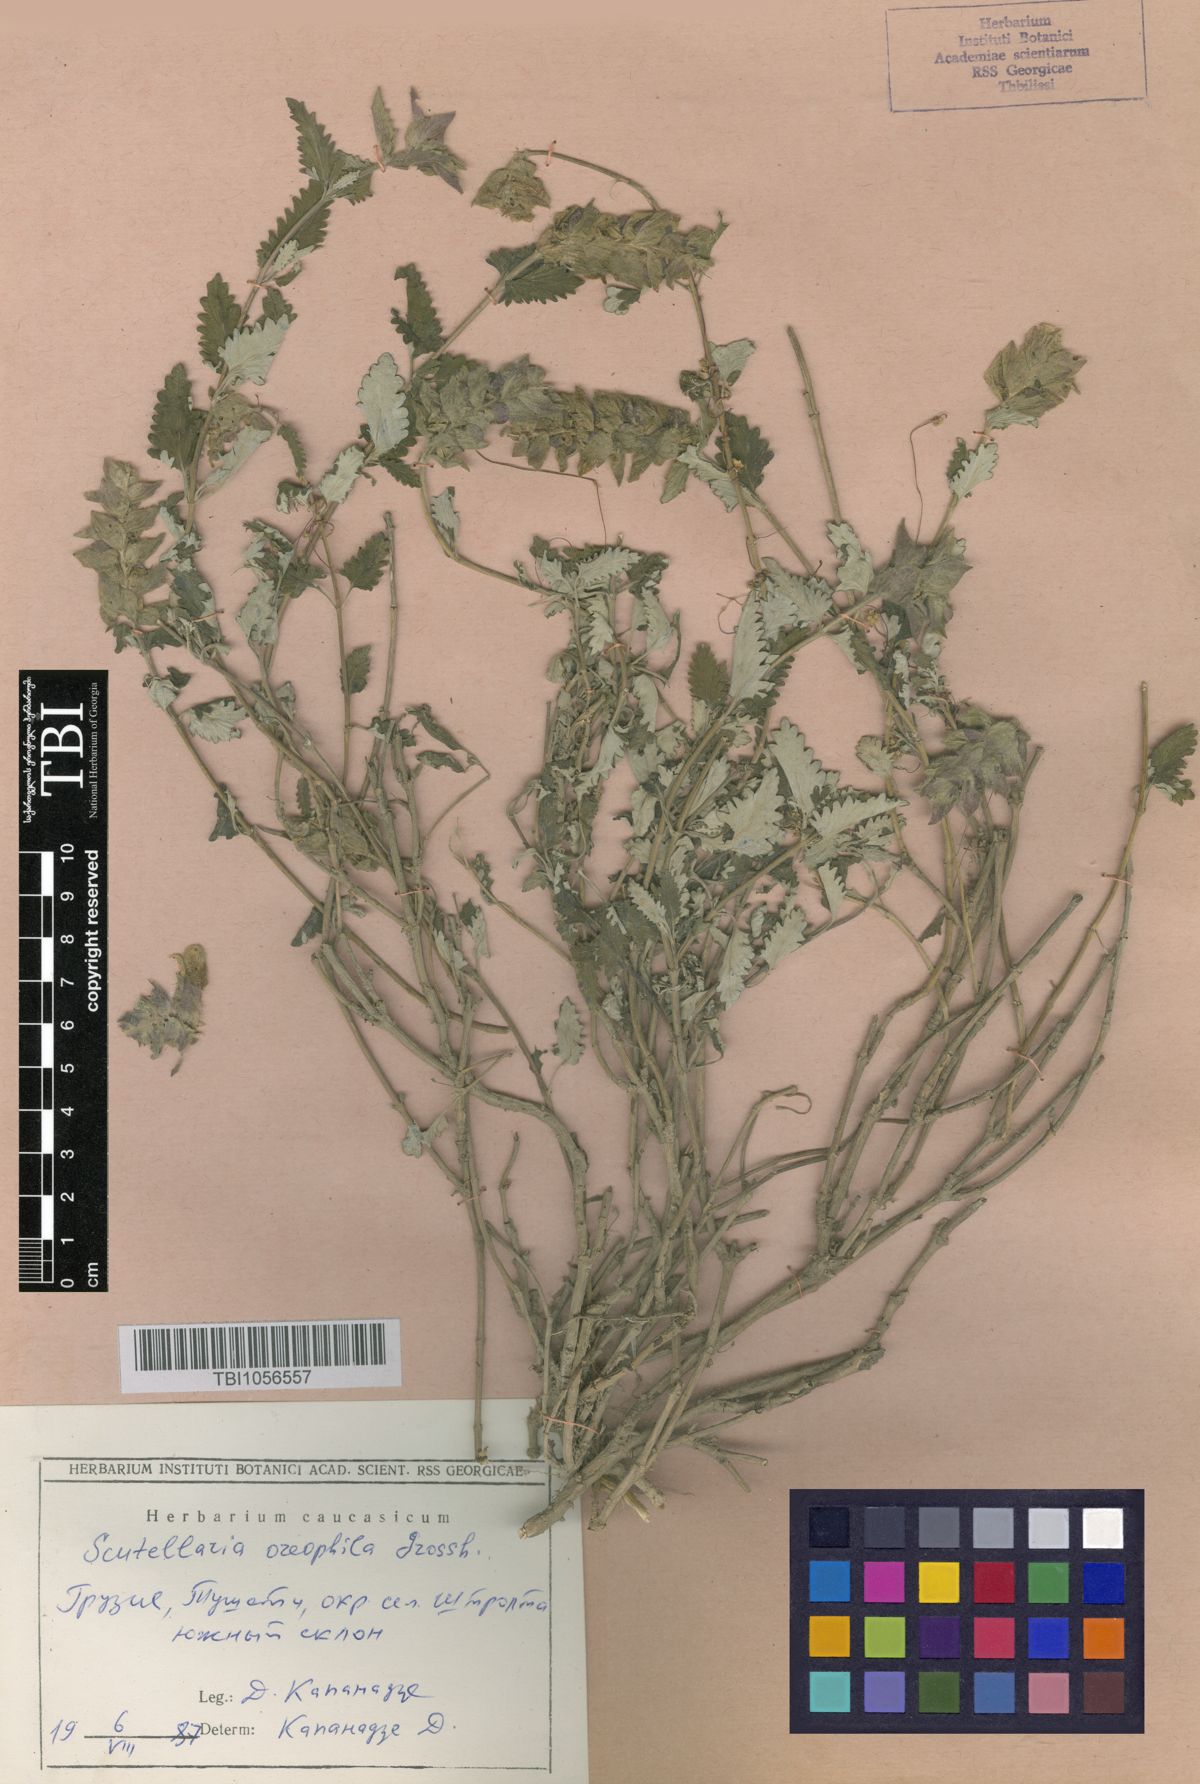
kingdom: Plantae
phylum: Tracheophyta
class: Magnoliopsida
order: Lamiales
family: Lamiaceae
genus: Scutellaria
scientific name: Scutellaria oreophila
